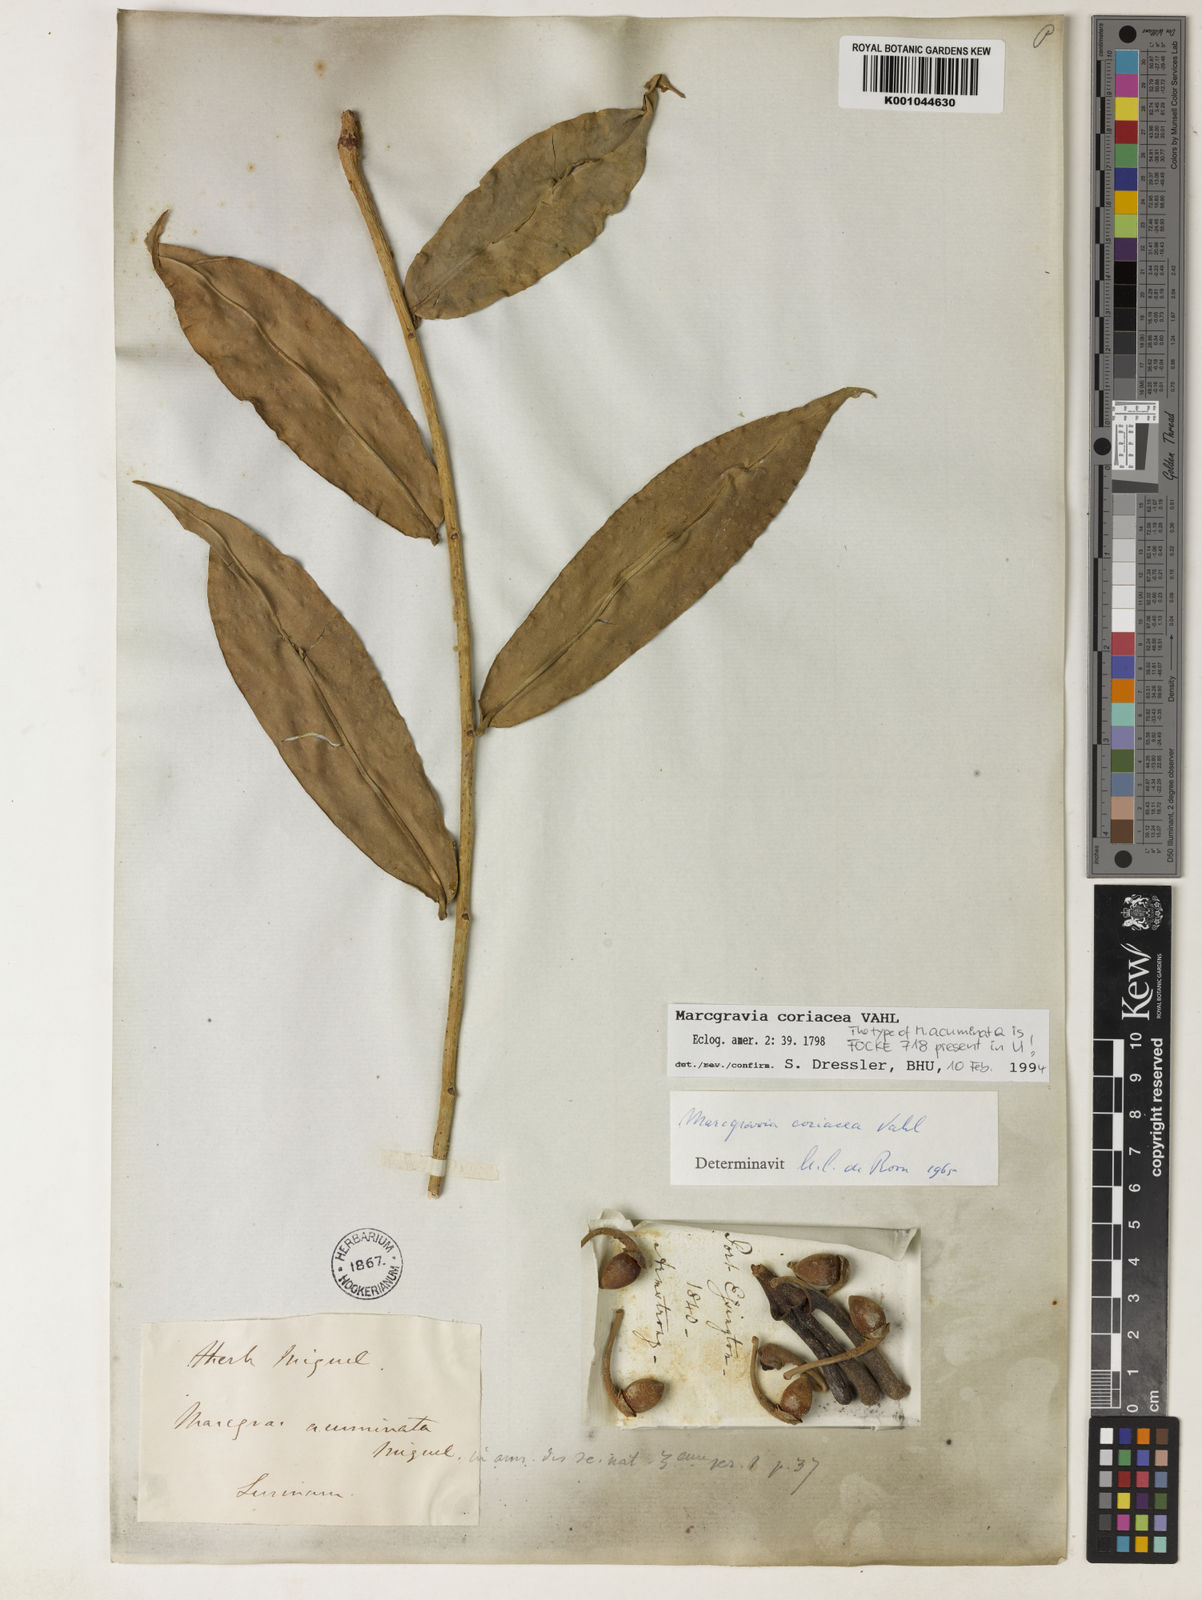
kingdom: Plantae
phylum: Tracheophyta
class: Magnoliopsida
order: Ericales
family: Marcgraviaceae
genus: Marcgravia
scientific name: Marcgravia coriacea
